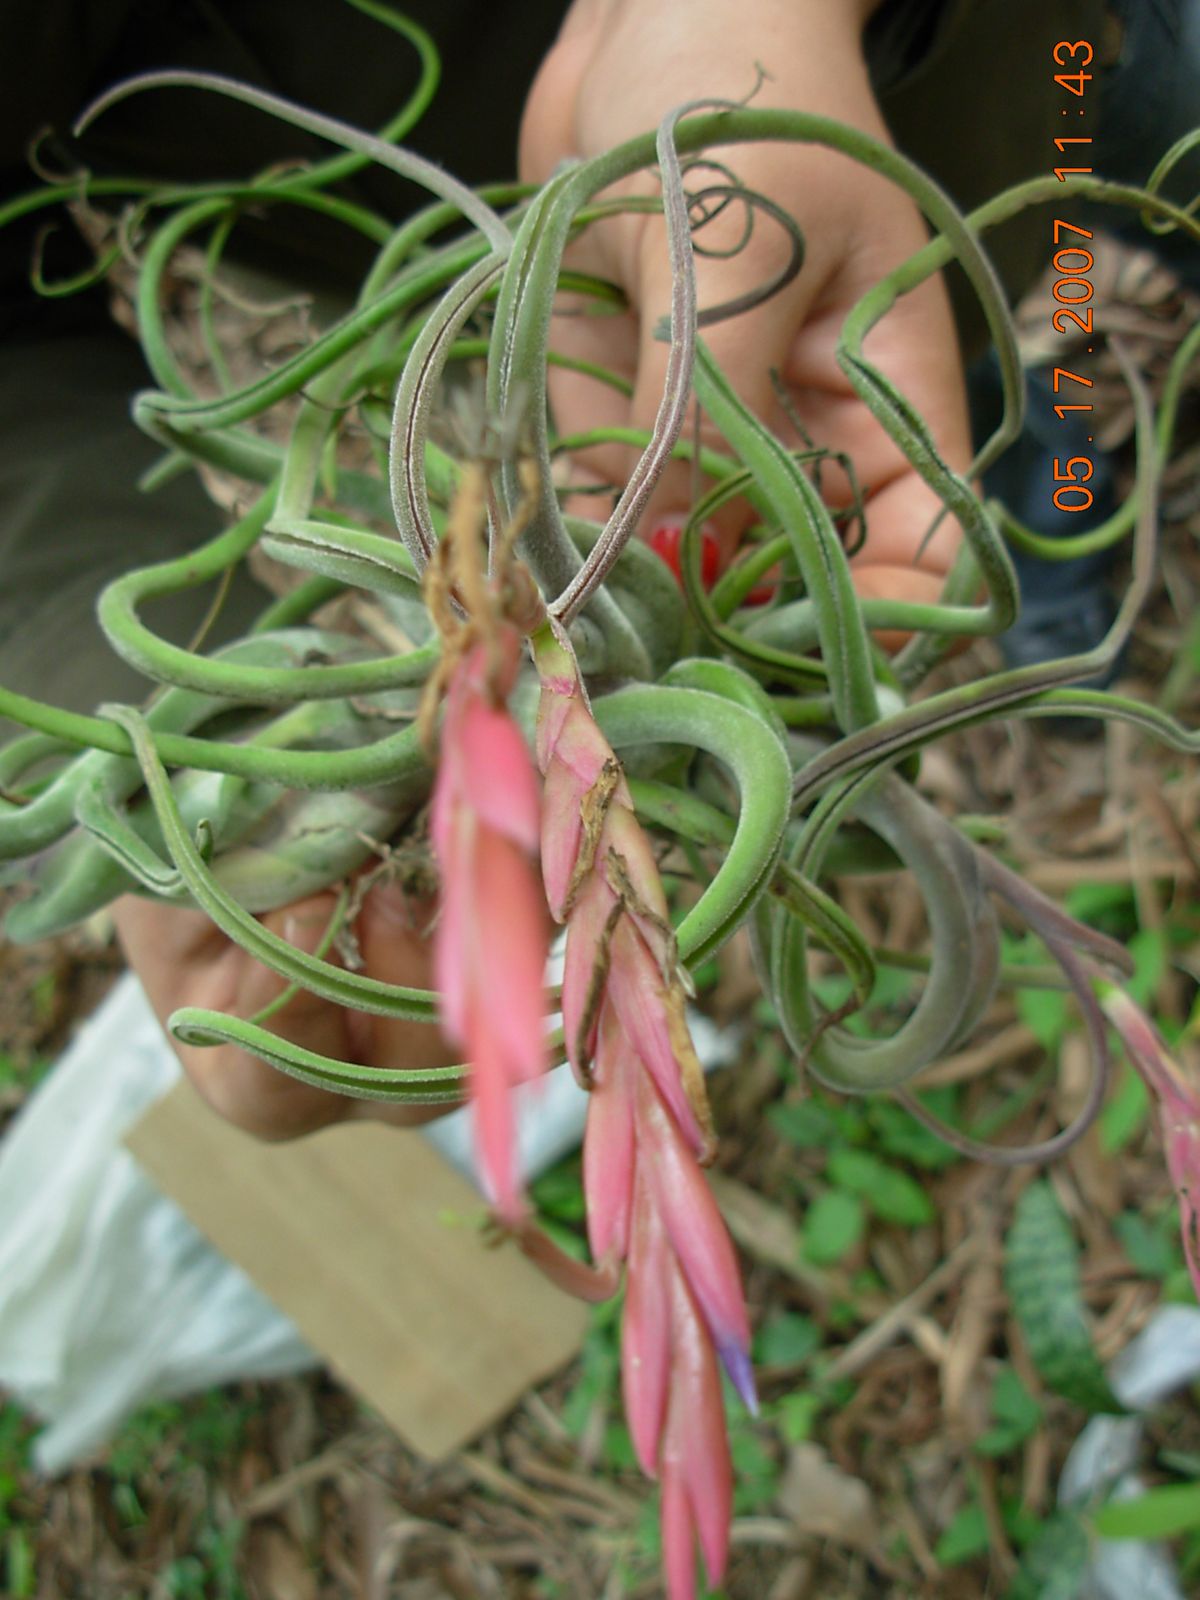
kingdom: Plantae
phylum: Tracheophyta
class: Liliopsida
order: Poales
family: Bromeliaceae
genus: Tillandsia
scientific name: Tillandsia caput-medusae
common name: Octopus plant
